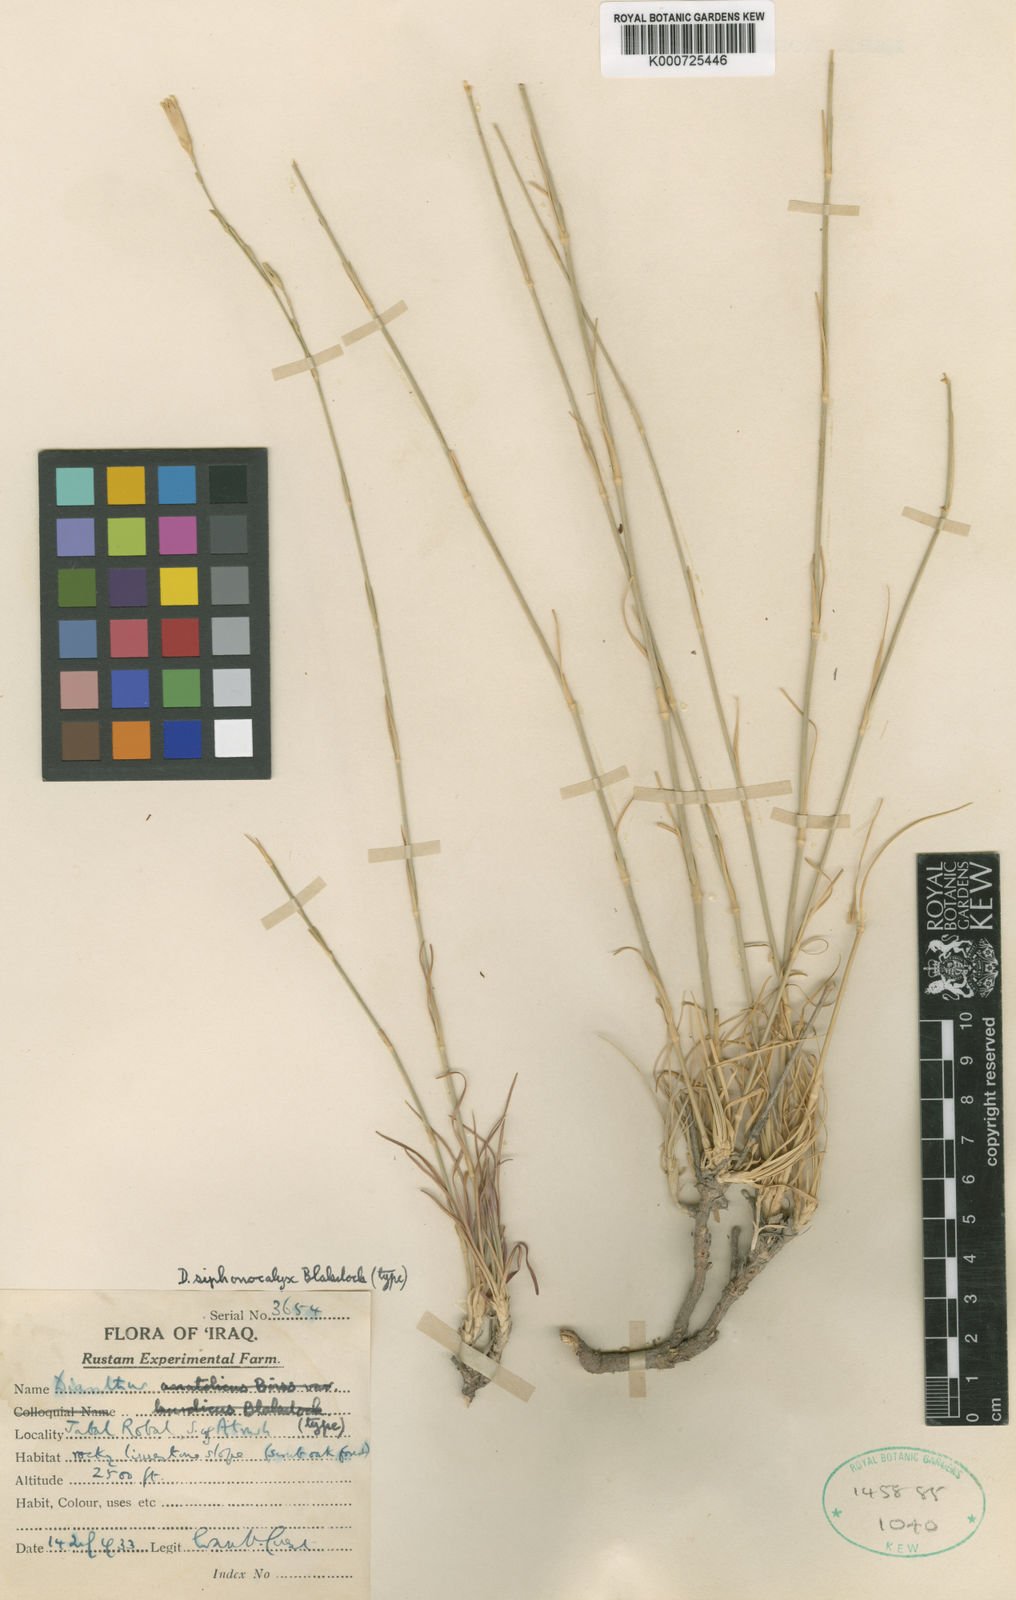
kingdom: Plantae
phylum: Tracheophyta
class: Magnoliopsida
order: Caryophyllales
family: Caryophyllaceae
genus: Dianthus
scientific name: Dianthus siphonocalyx
